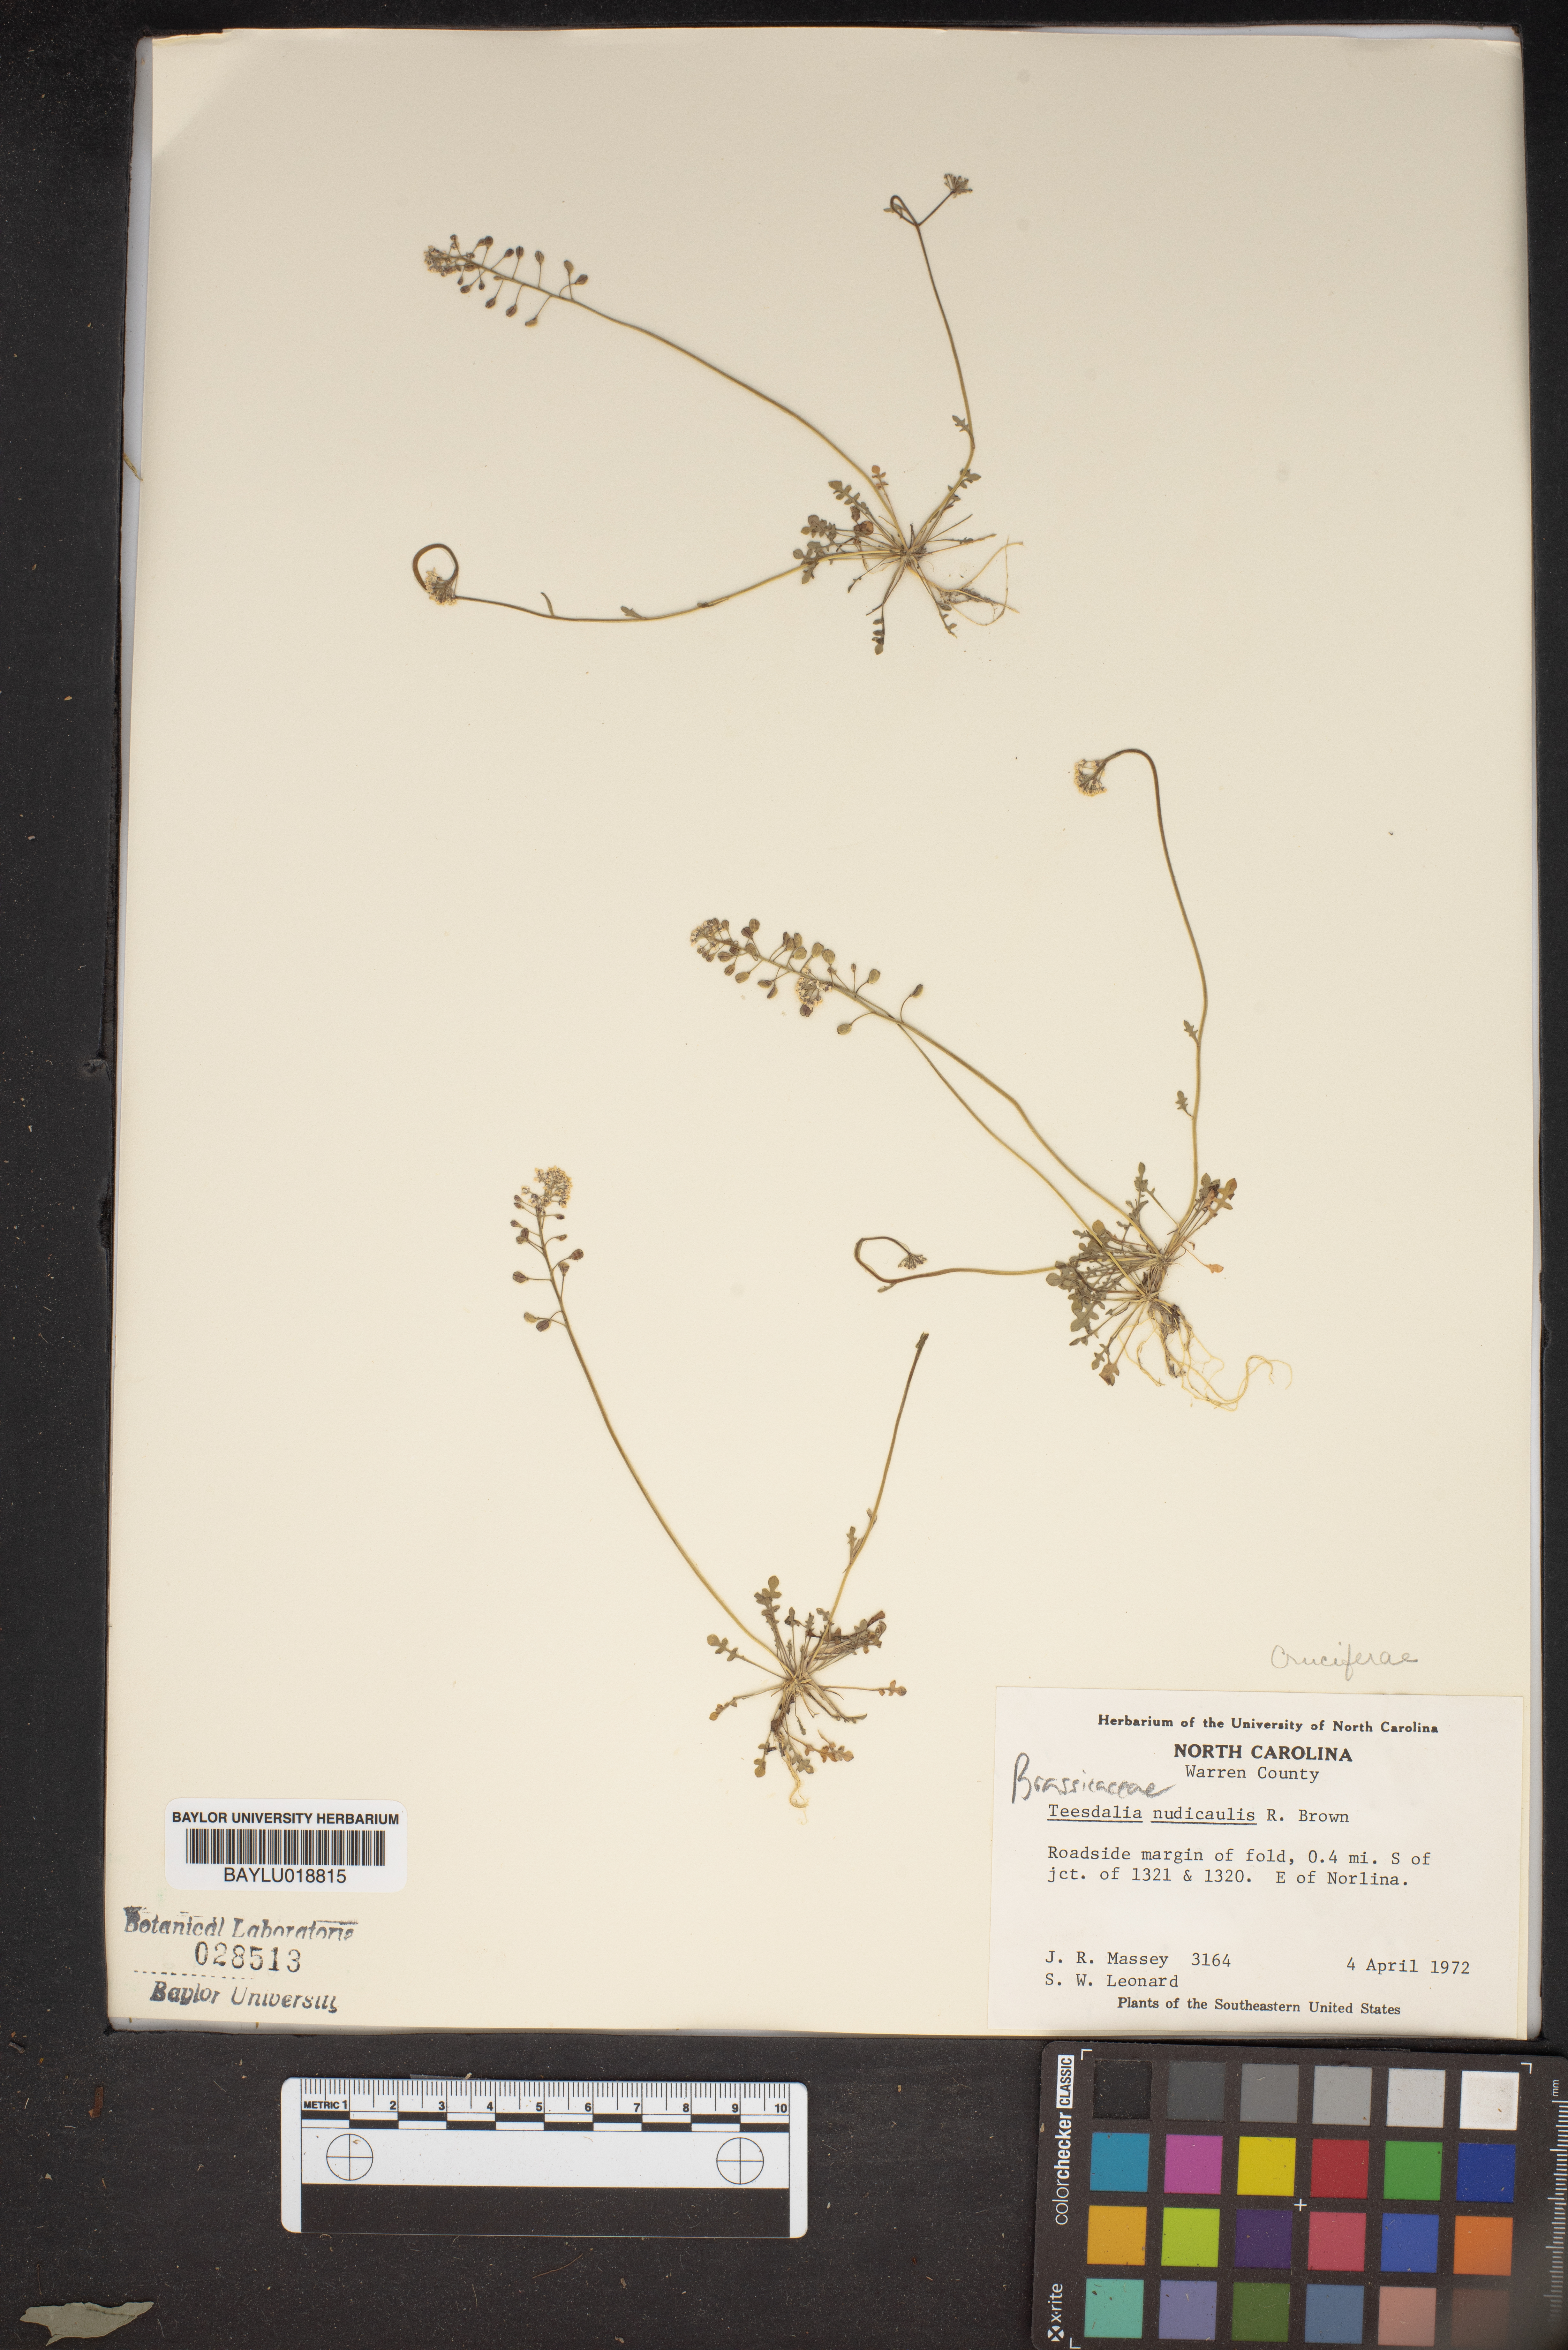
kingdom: Plantae
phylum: Tracheophyta
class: Magnoliopsida
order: Brassicales
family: Brassicaceae
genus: Teesdalia
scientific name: Teesdalia nudicaulis
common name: Shepherd's cress
